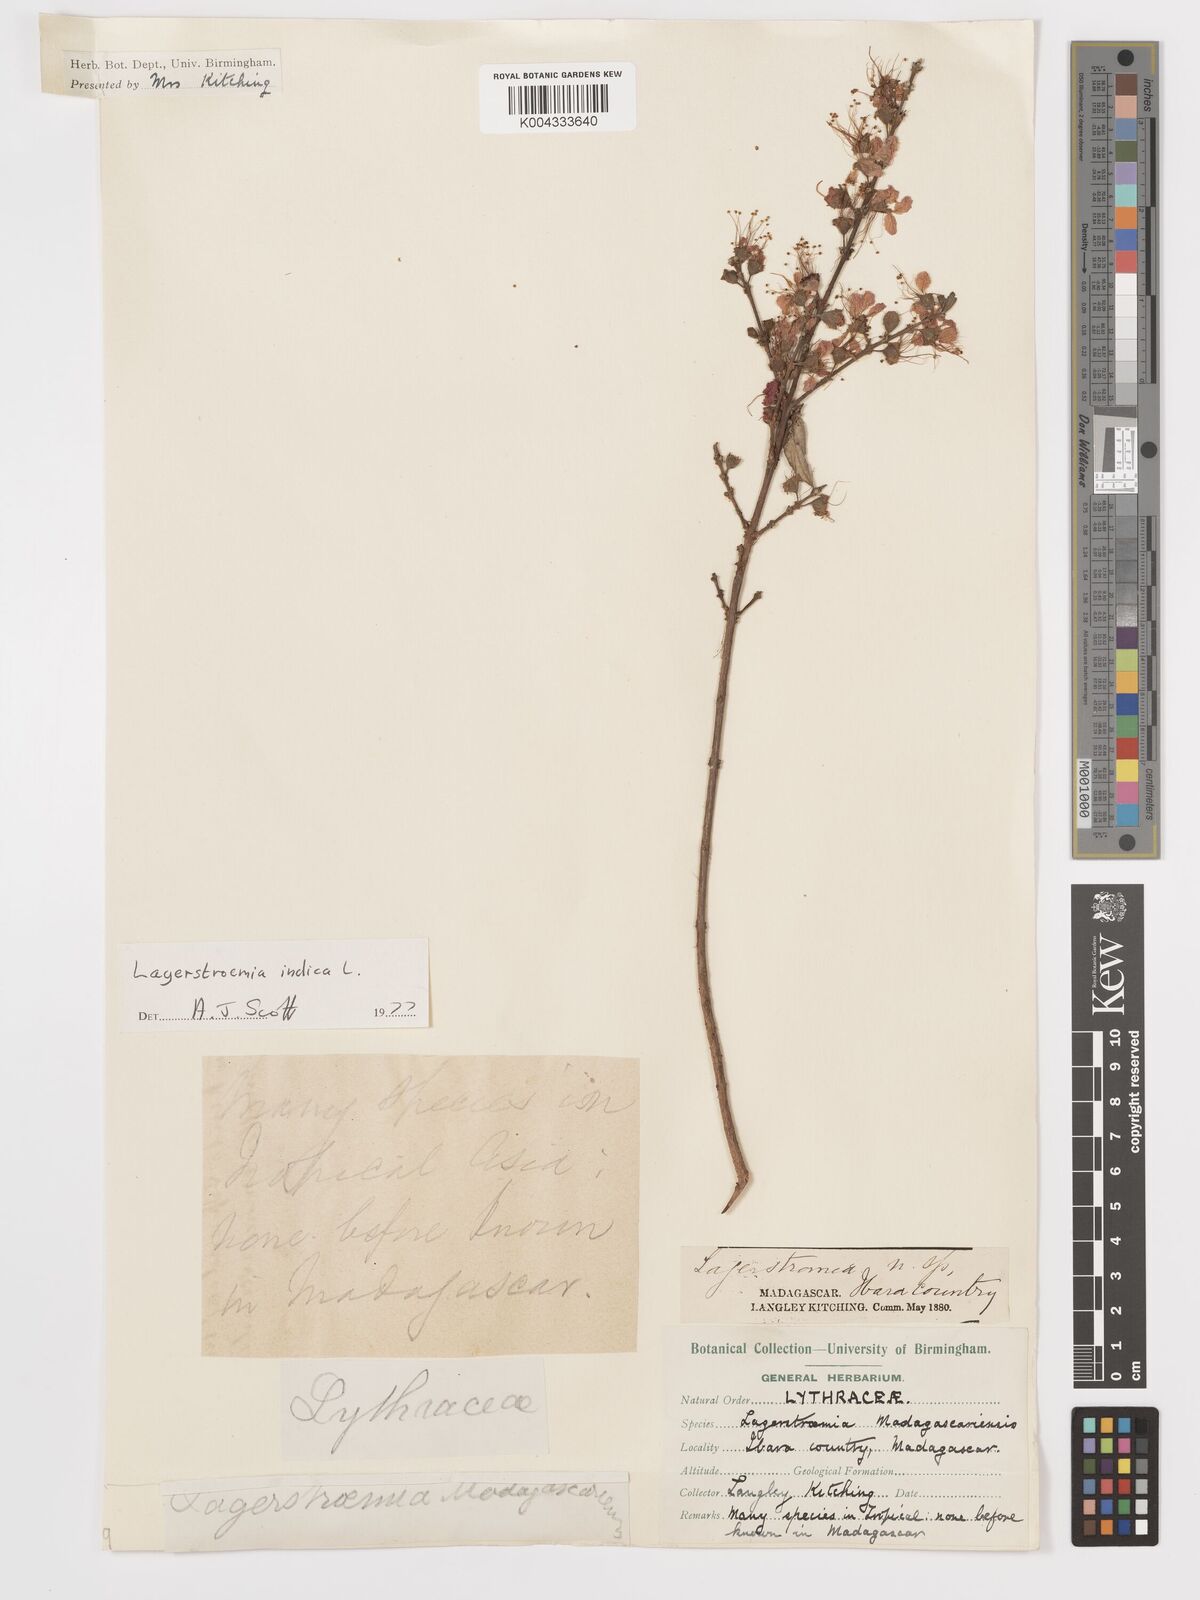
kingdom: Plantae
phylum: Tracheophyta
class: Magnoliopsida
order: Myrtales
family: Lythraceae
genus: Lagerstroemia
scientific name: Lagerstroemia indica
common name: Crape-myrtle
